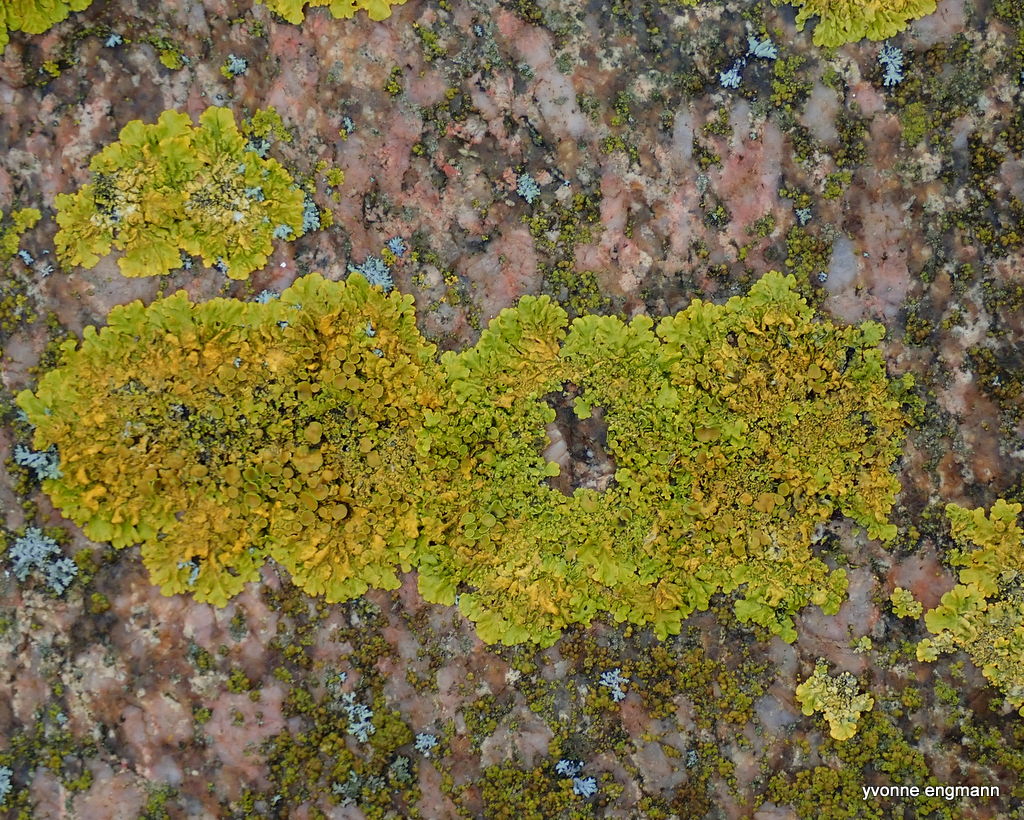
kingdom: Fungi
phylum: Ascomycota
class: Lecanoromycetes
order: Teloschistales
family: Teloschistaceae
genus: Xanthoria
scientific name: Xanthoria parietina
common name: almindelig væggelav
